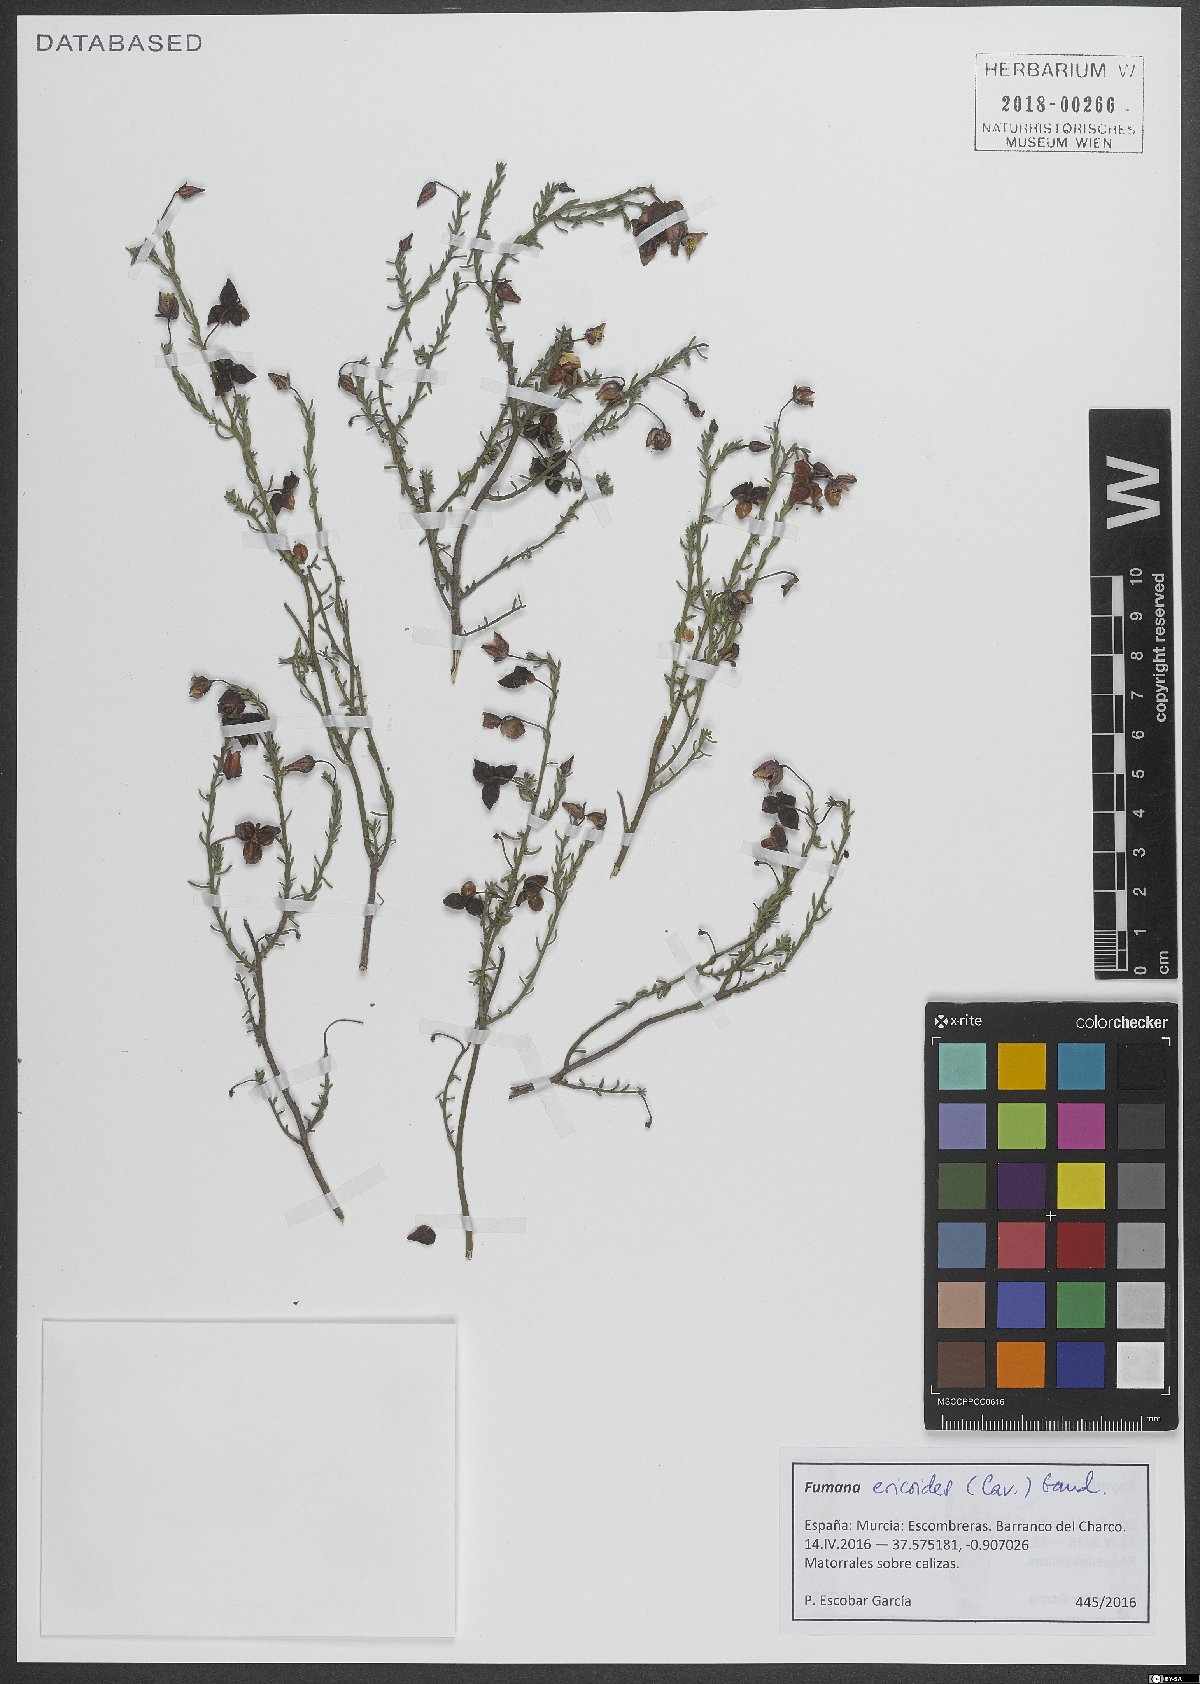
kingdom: Plantae
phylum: Tracheophyta
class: Magnoliopsida
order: Malvales
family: Cistaceae
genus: Fumana
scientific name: Fumana ericoides
